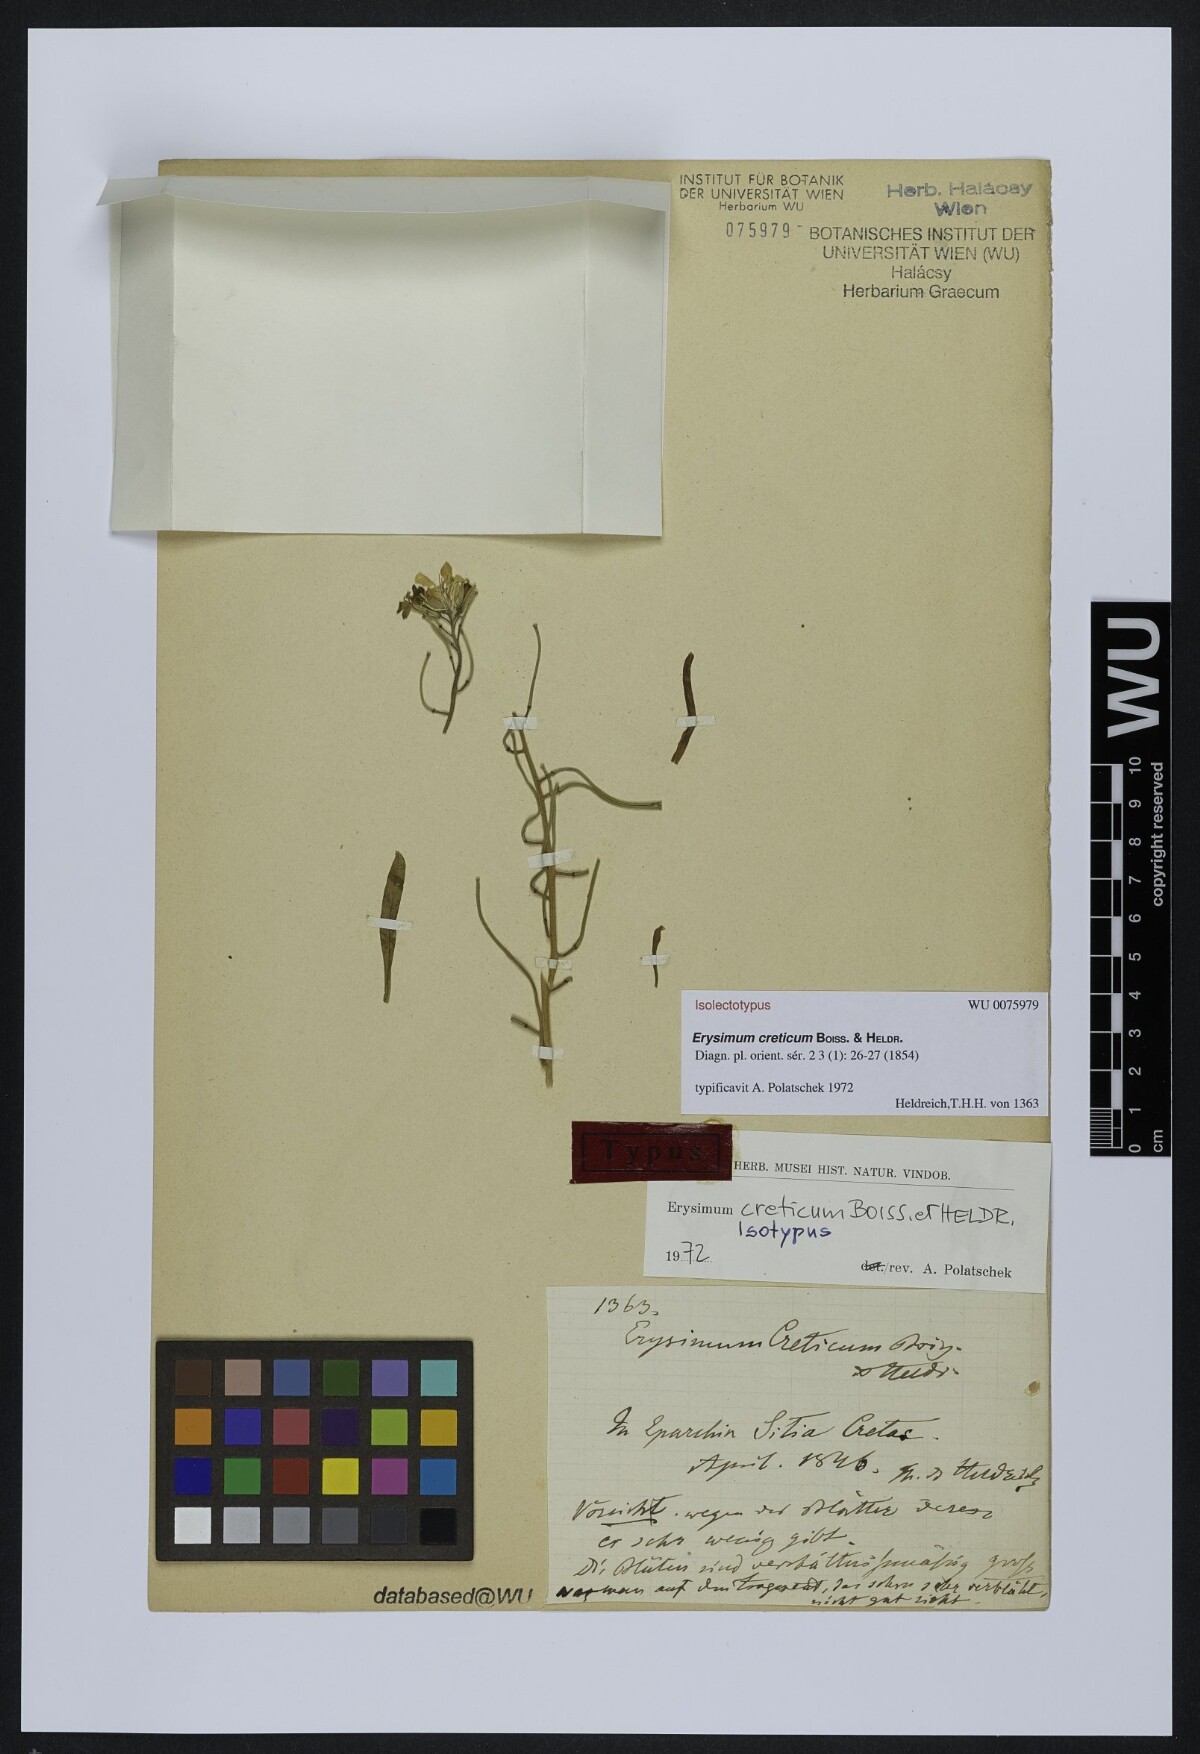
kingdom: Plantae
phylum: Tracheophyta
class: Magnoliopsida
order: Brassicales
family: Brassicaceae
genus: Erysimum
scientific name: Erysimum creticum
